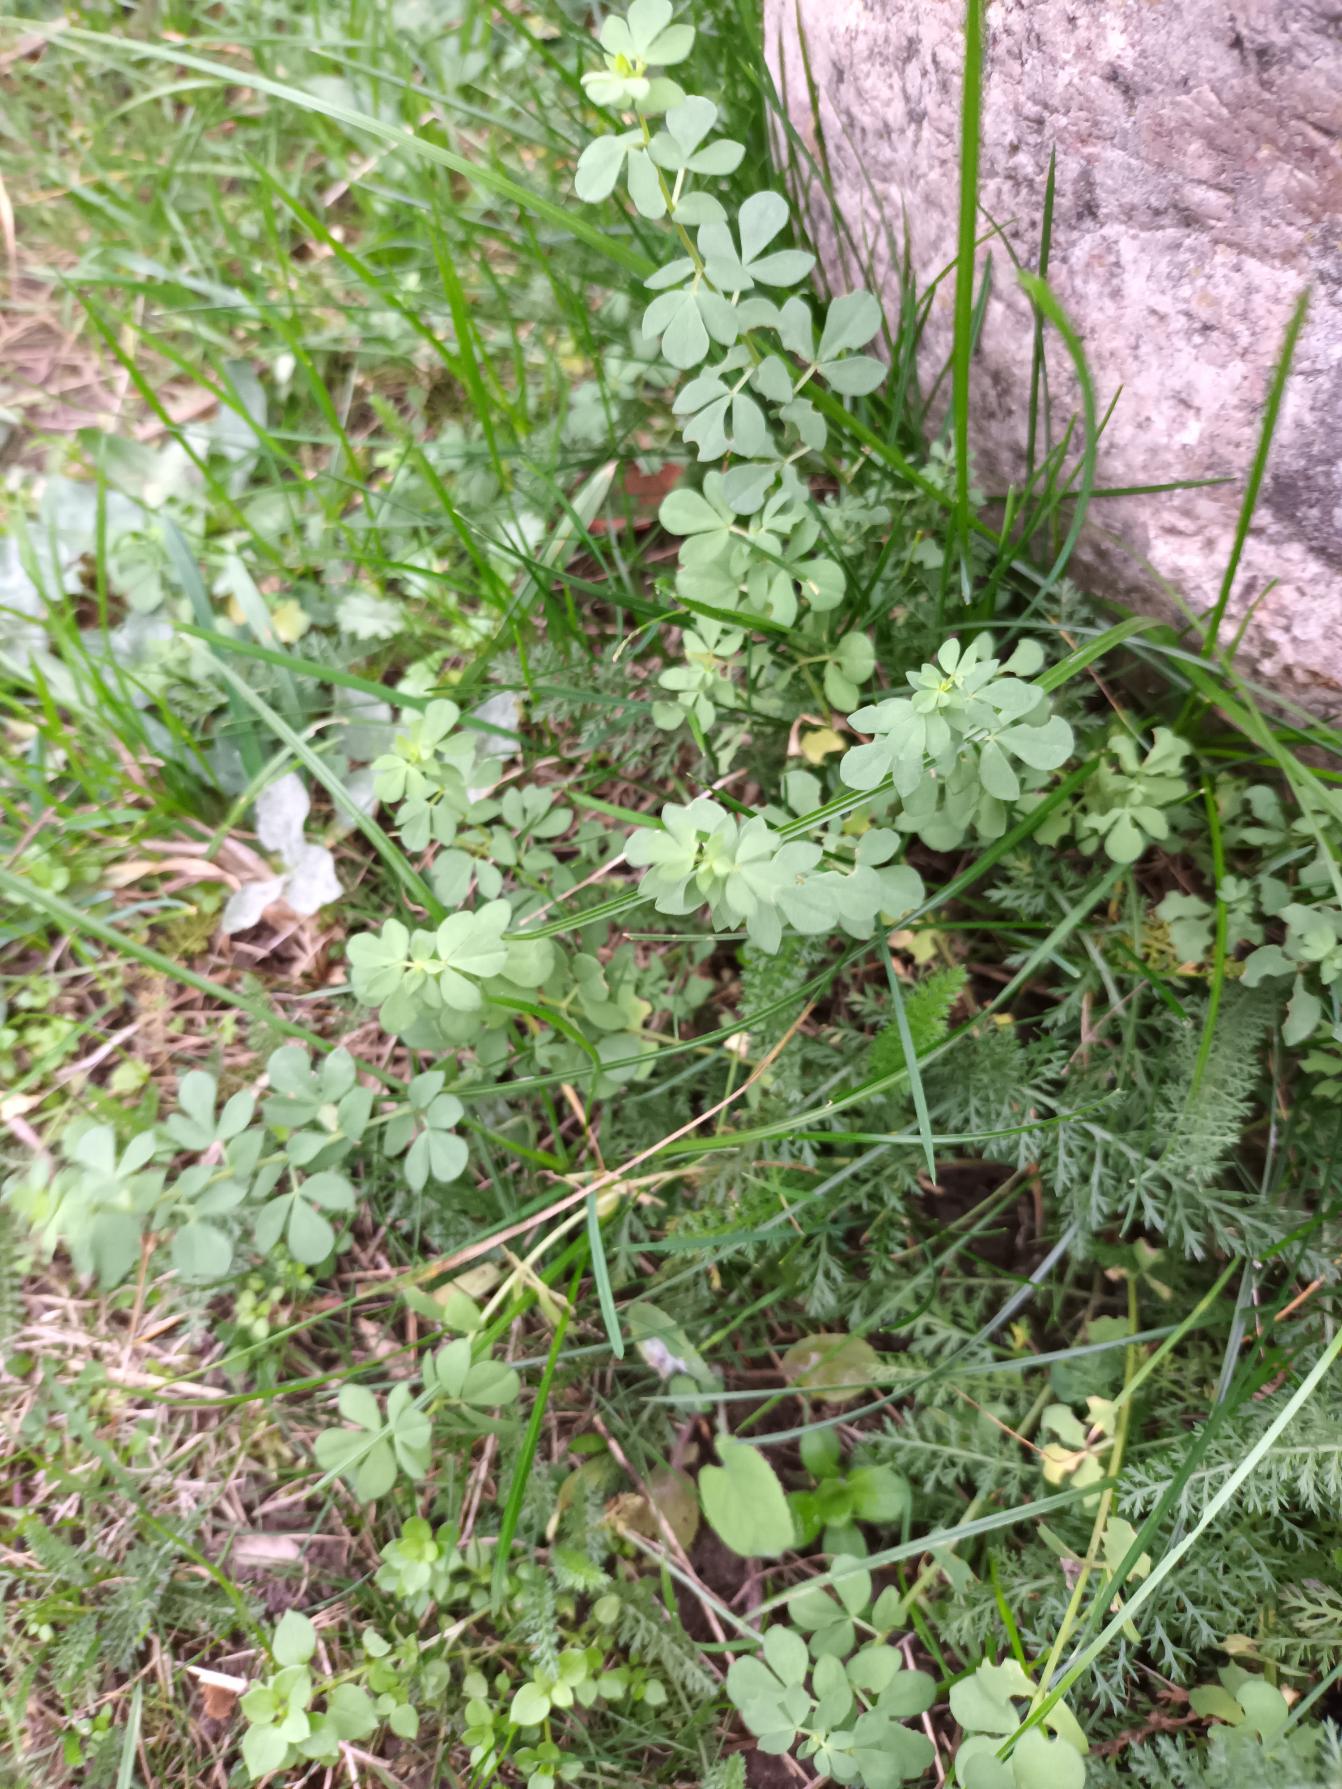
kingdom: Plantae
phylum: Tracheophyta
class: Magnoliopsida
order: Fabales
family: Fabaceae
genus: Lotus
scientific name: Lotus corniculatus
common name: Almindelig kællingetand
